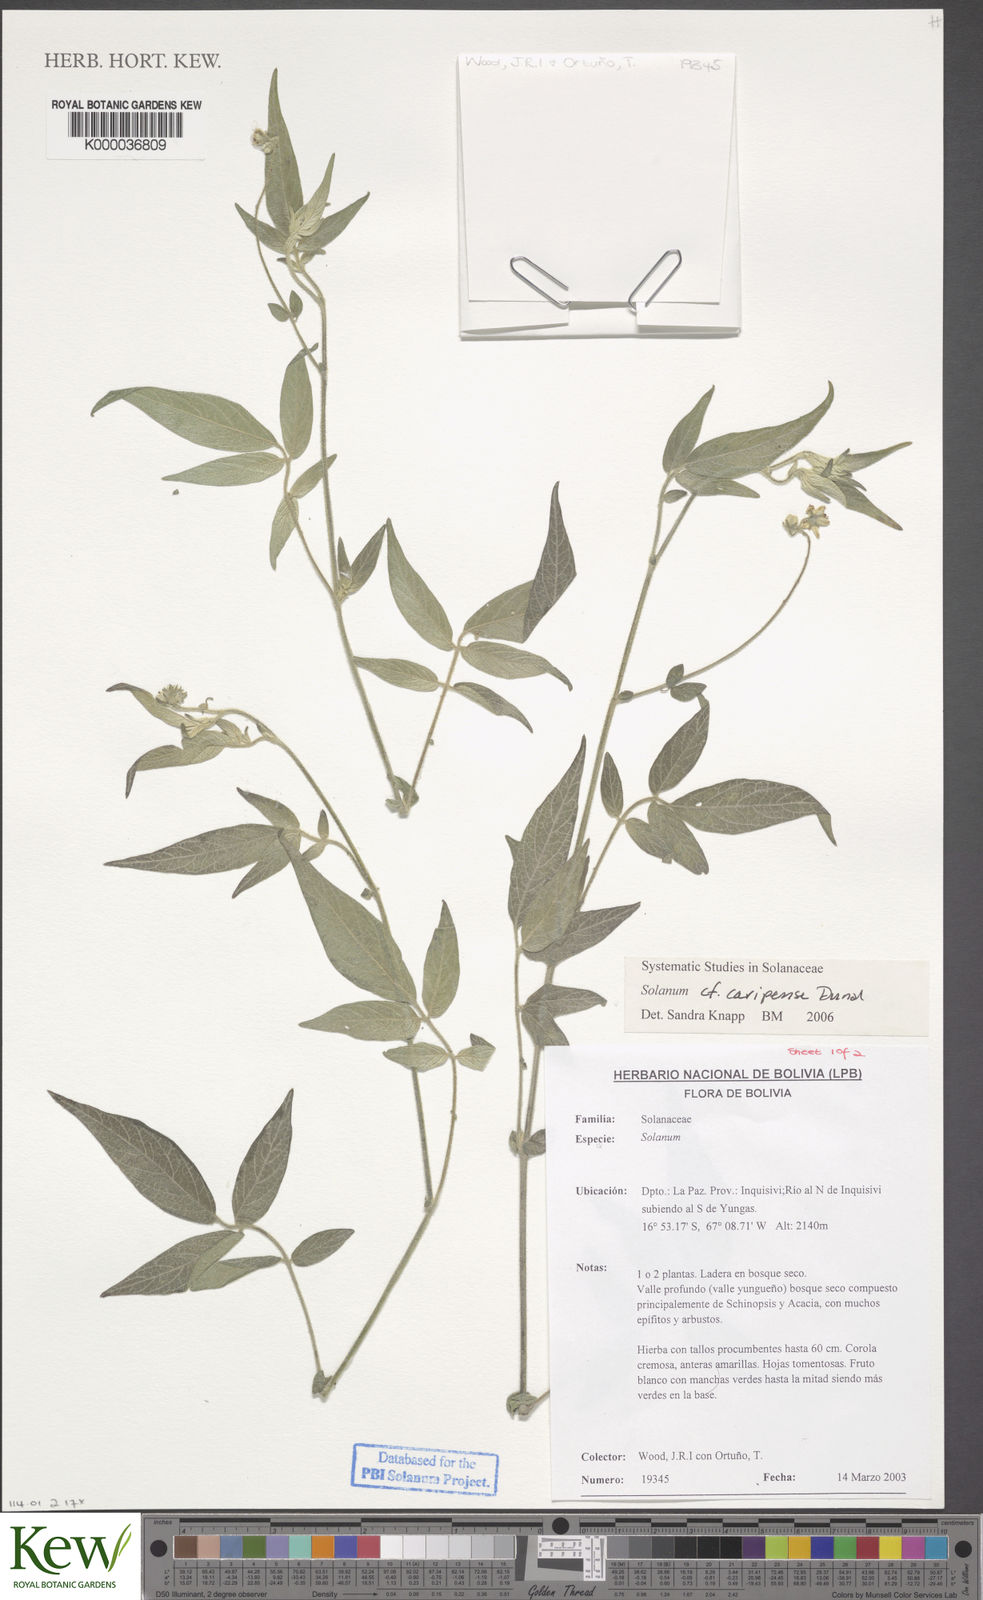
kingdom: Plantae
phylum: Tracheophyta
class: Magnoliopsida
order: Solanales
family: Solanaceae
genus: Solanum
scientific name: Solanum caripense
